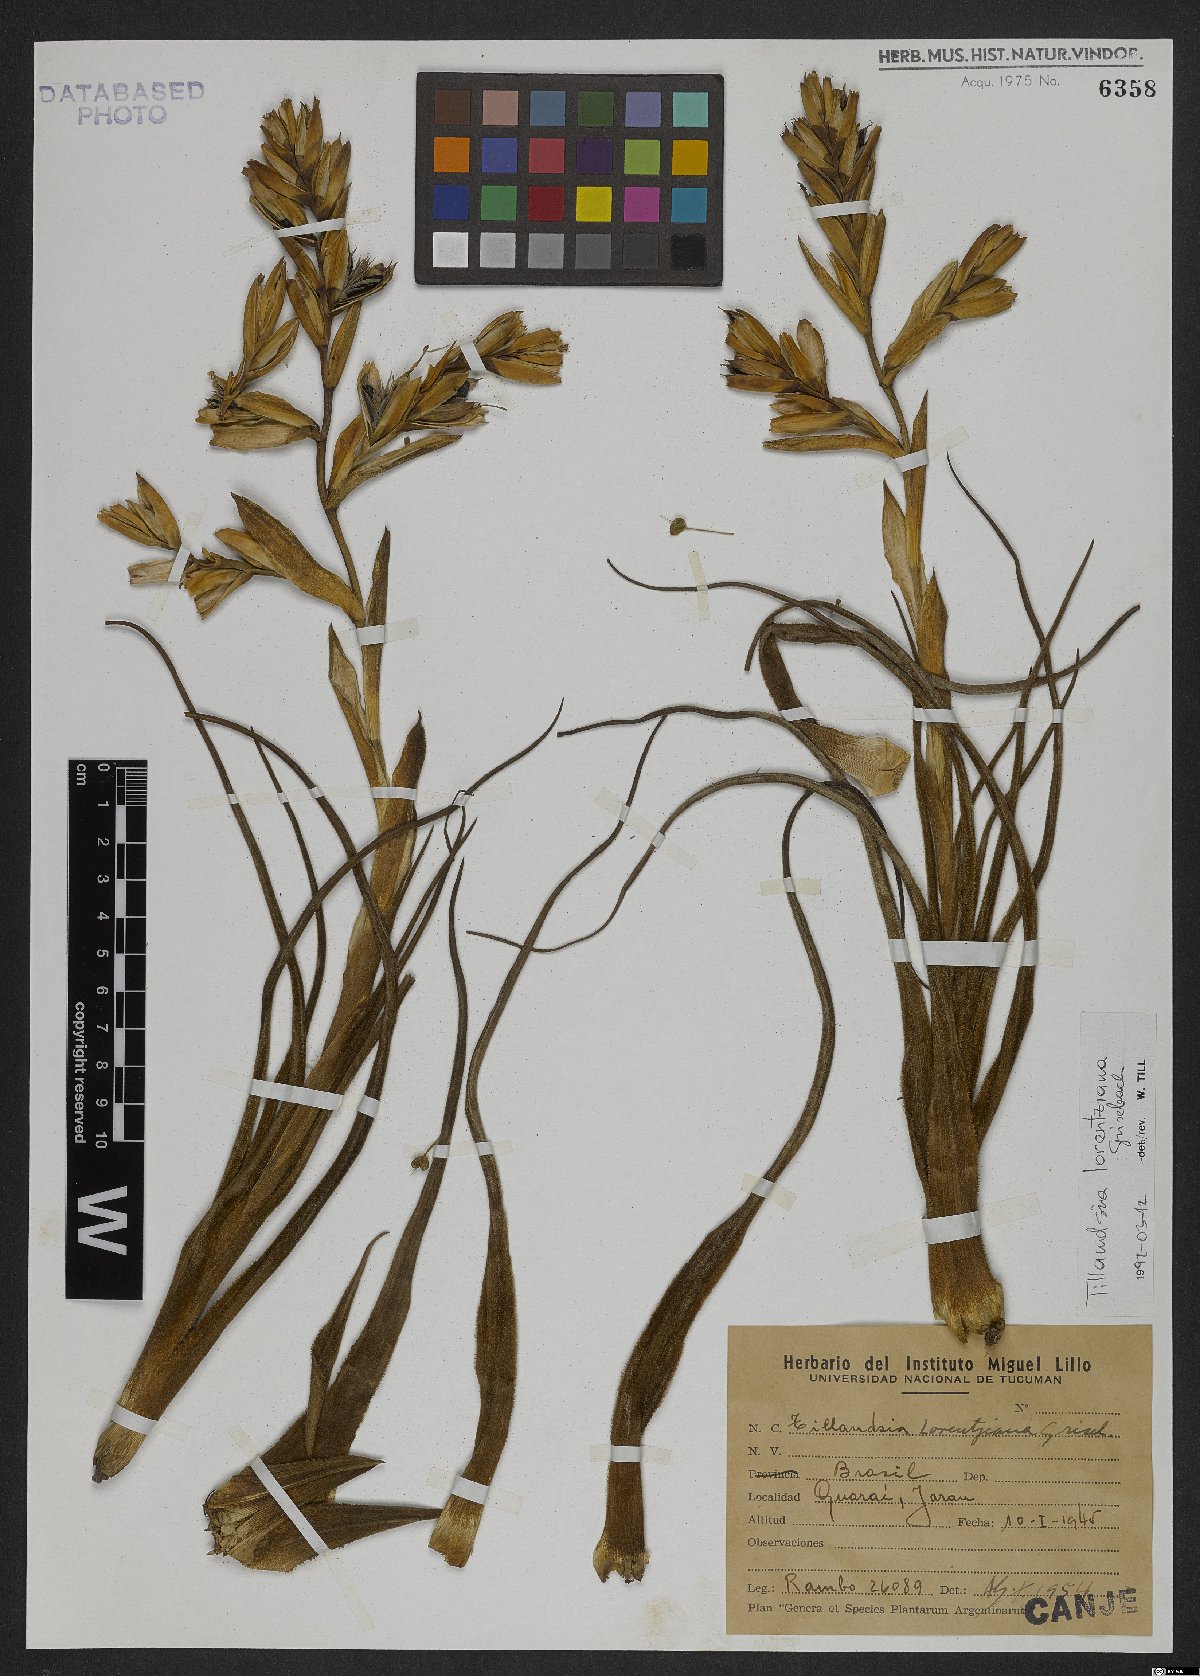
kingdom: Plantae
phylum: Tracheophyta
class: Liliopsida
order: Poales
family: Bromeliaceae
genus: Tillandsia
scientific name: Tillandsia lorentziana
